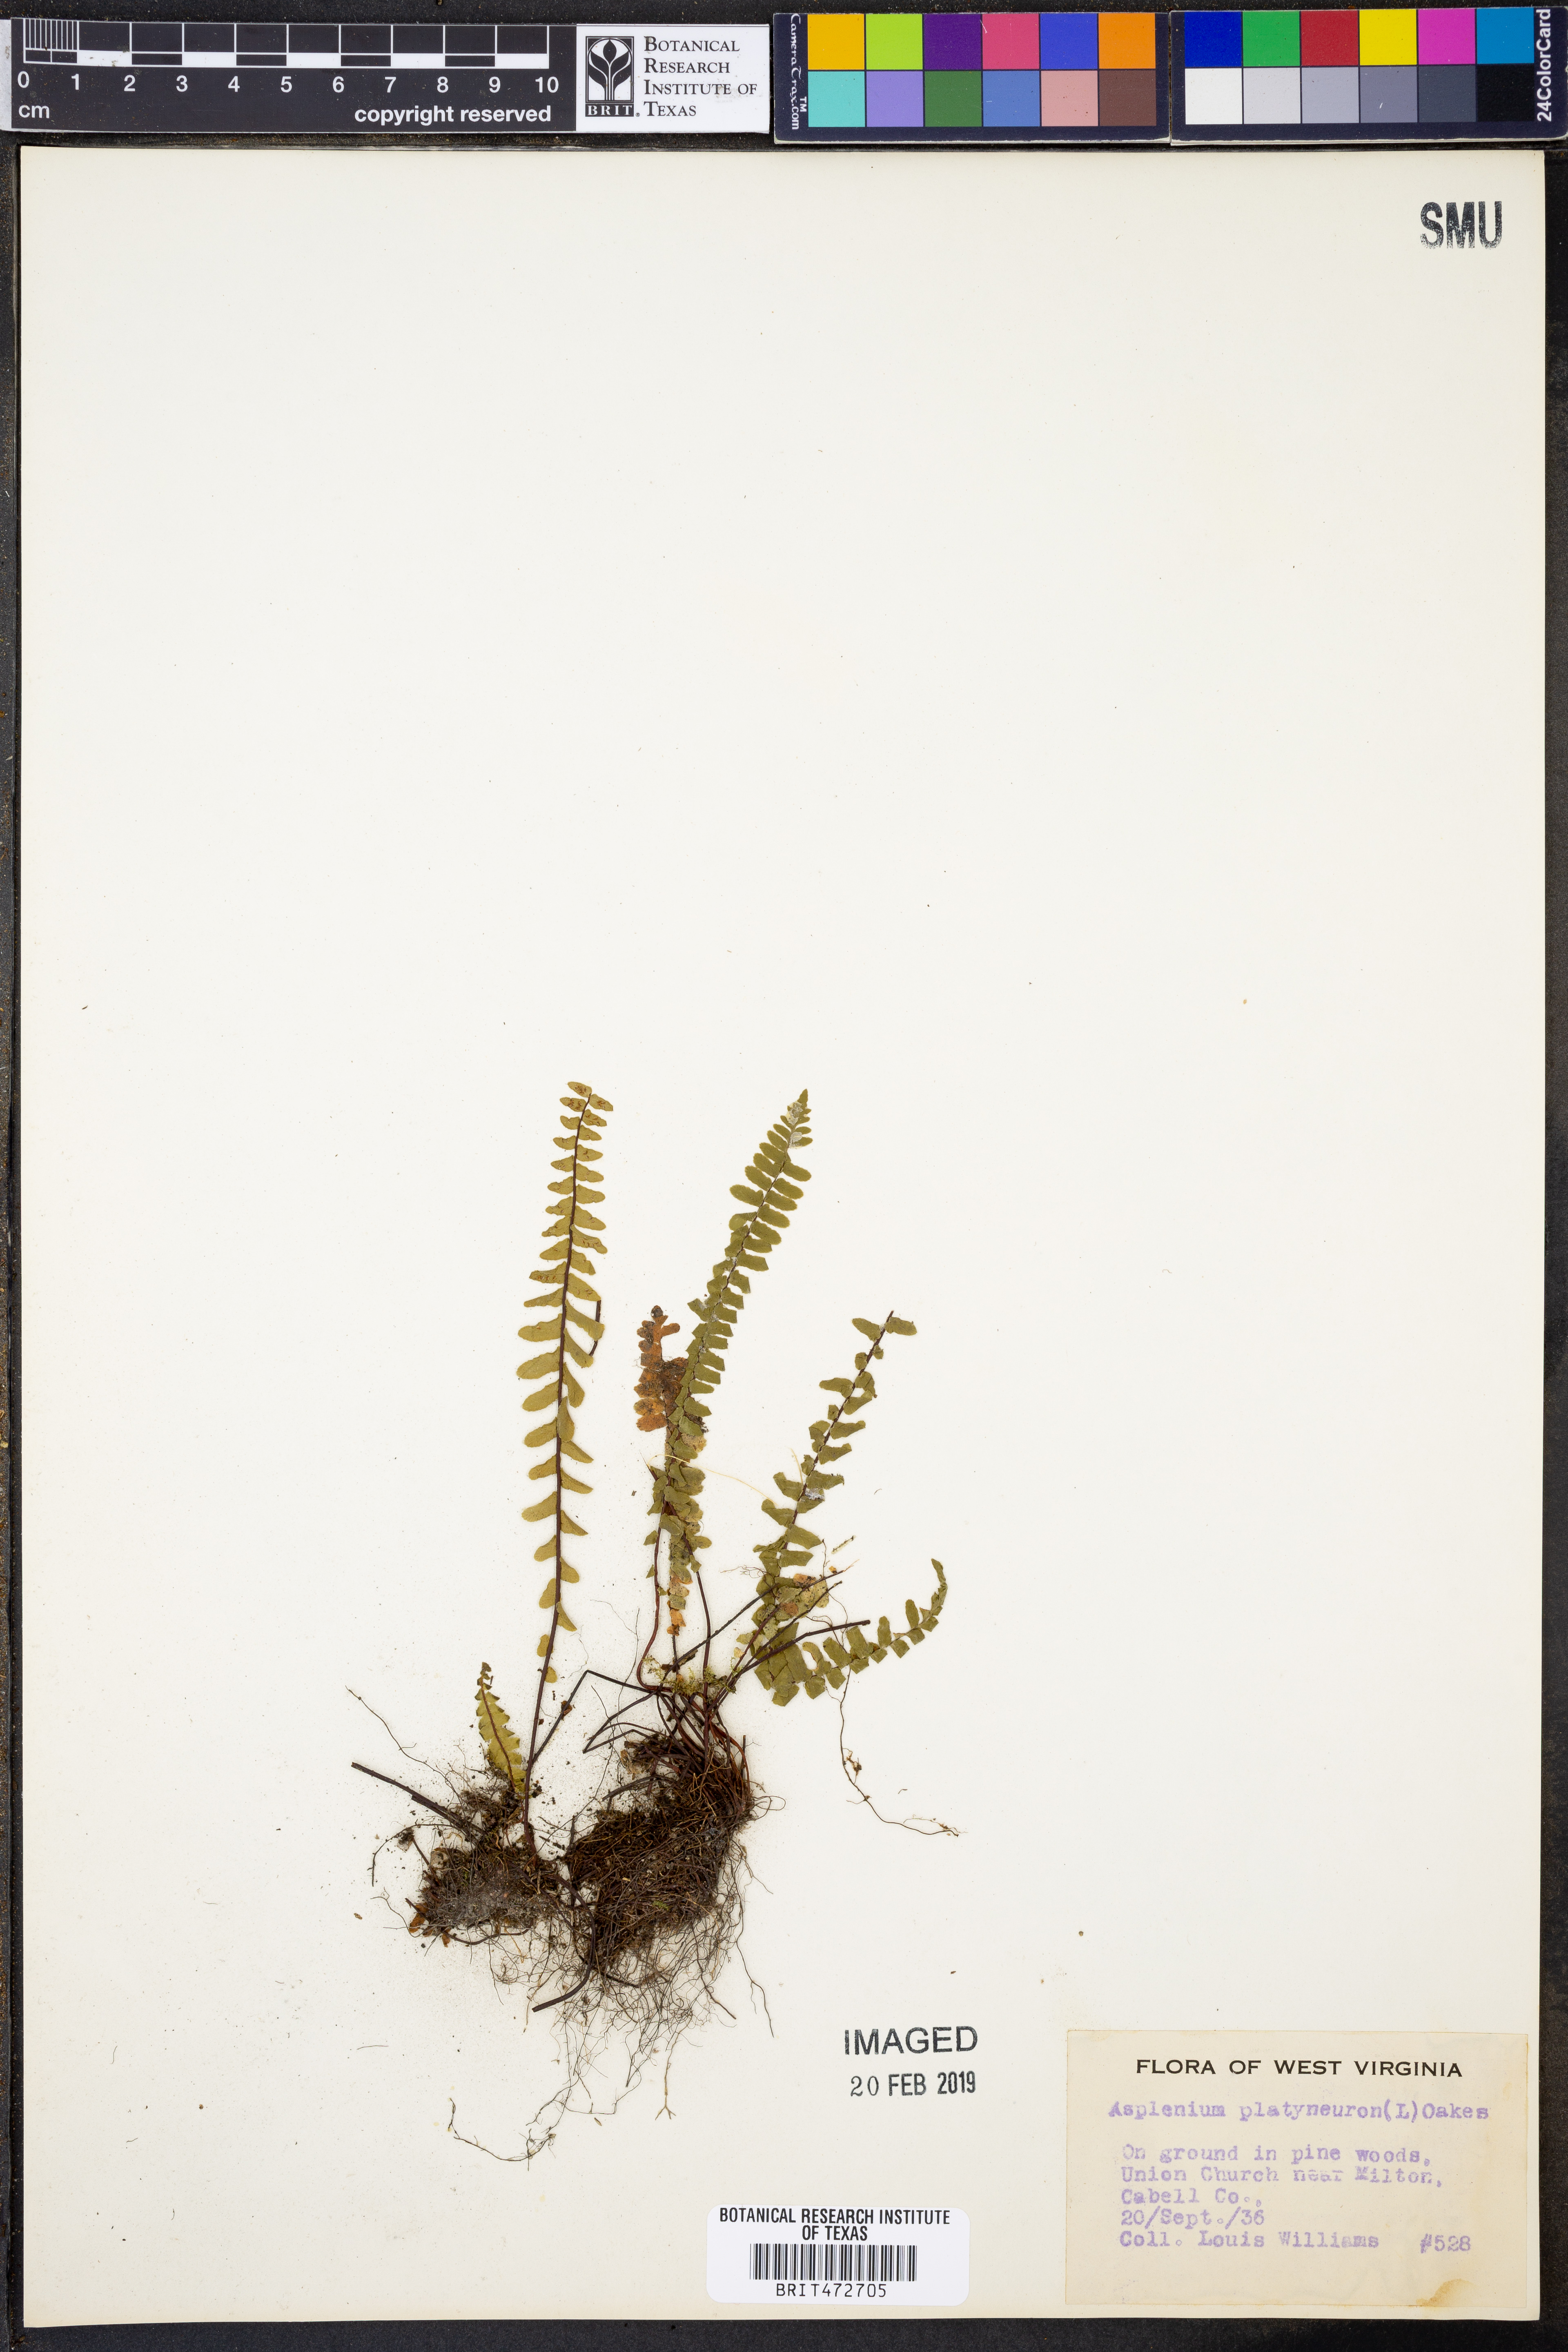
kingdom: Plantae
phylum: Tracheophyta
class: Polypodiopsida
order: Polypodiales
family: Aspleniaceae
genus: Asplenium
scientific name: Asplenium platyneuron
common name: Ebony spleenwort
